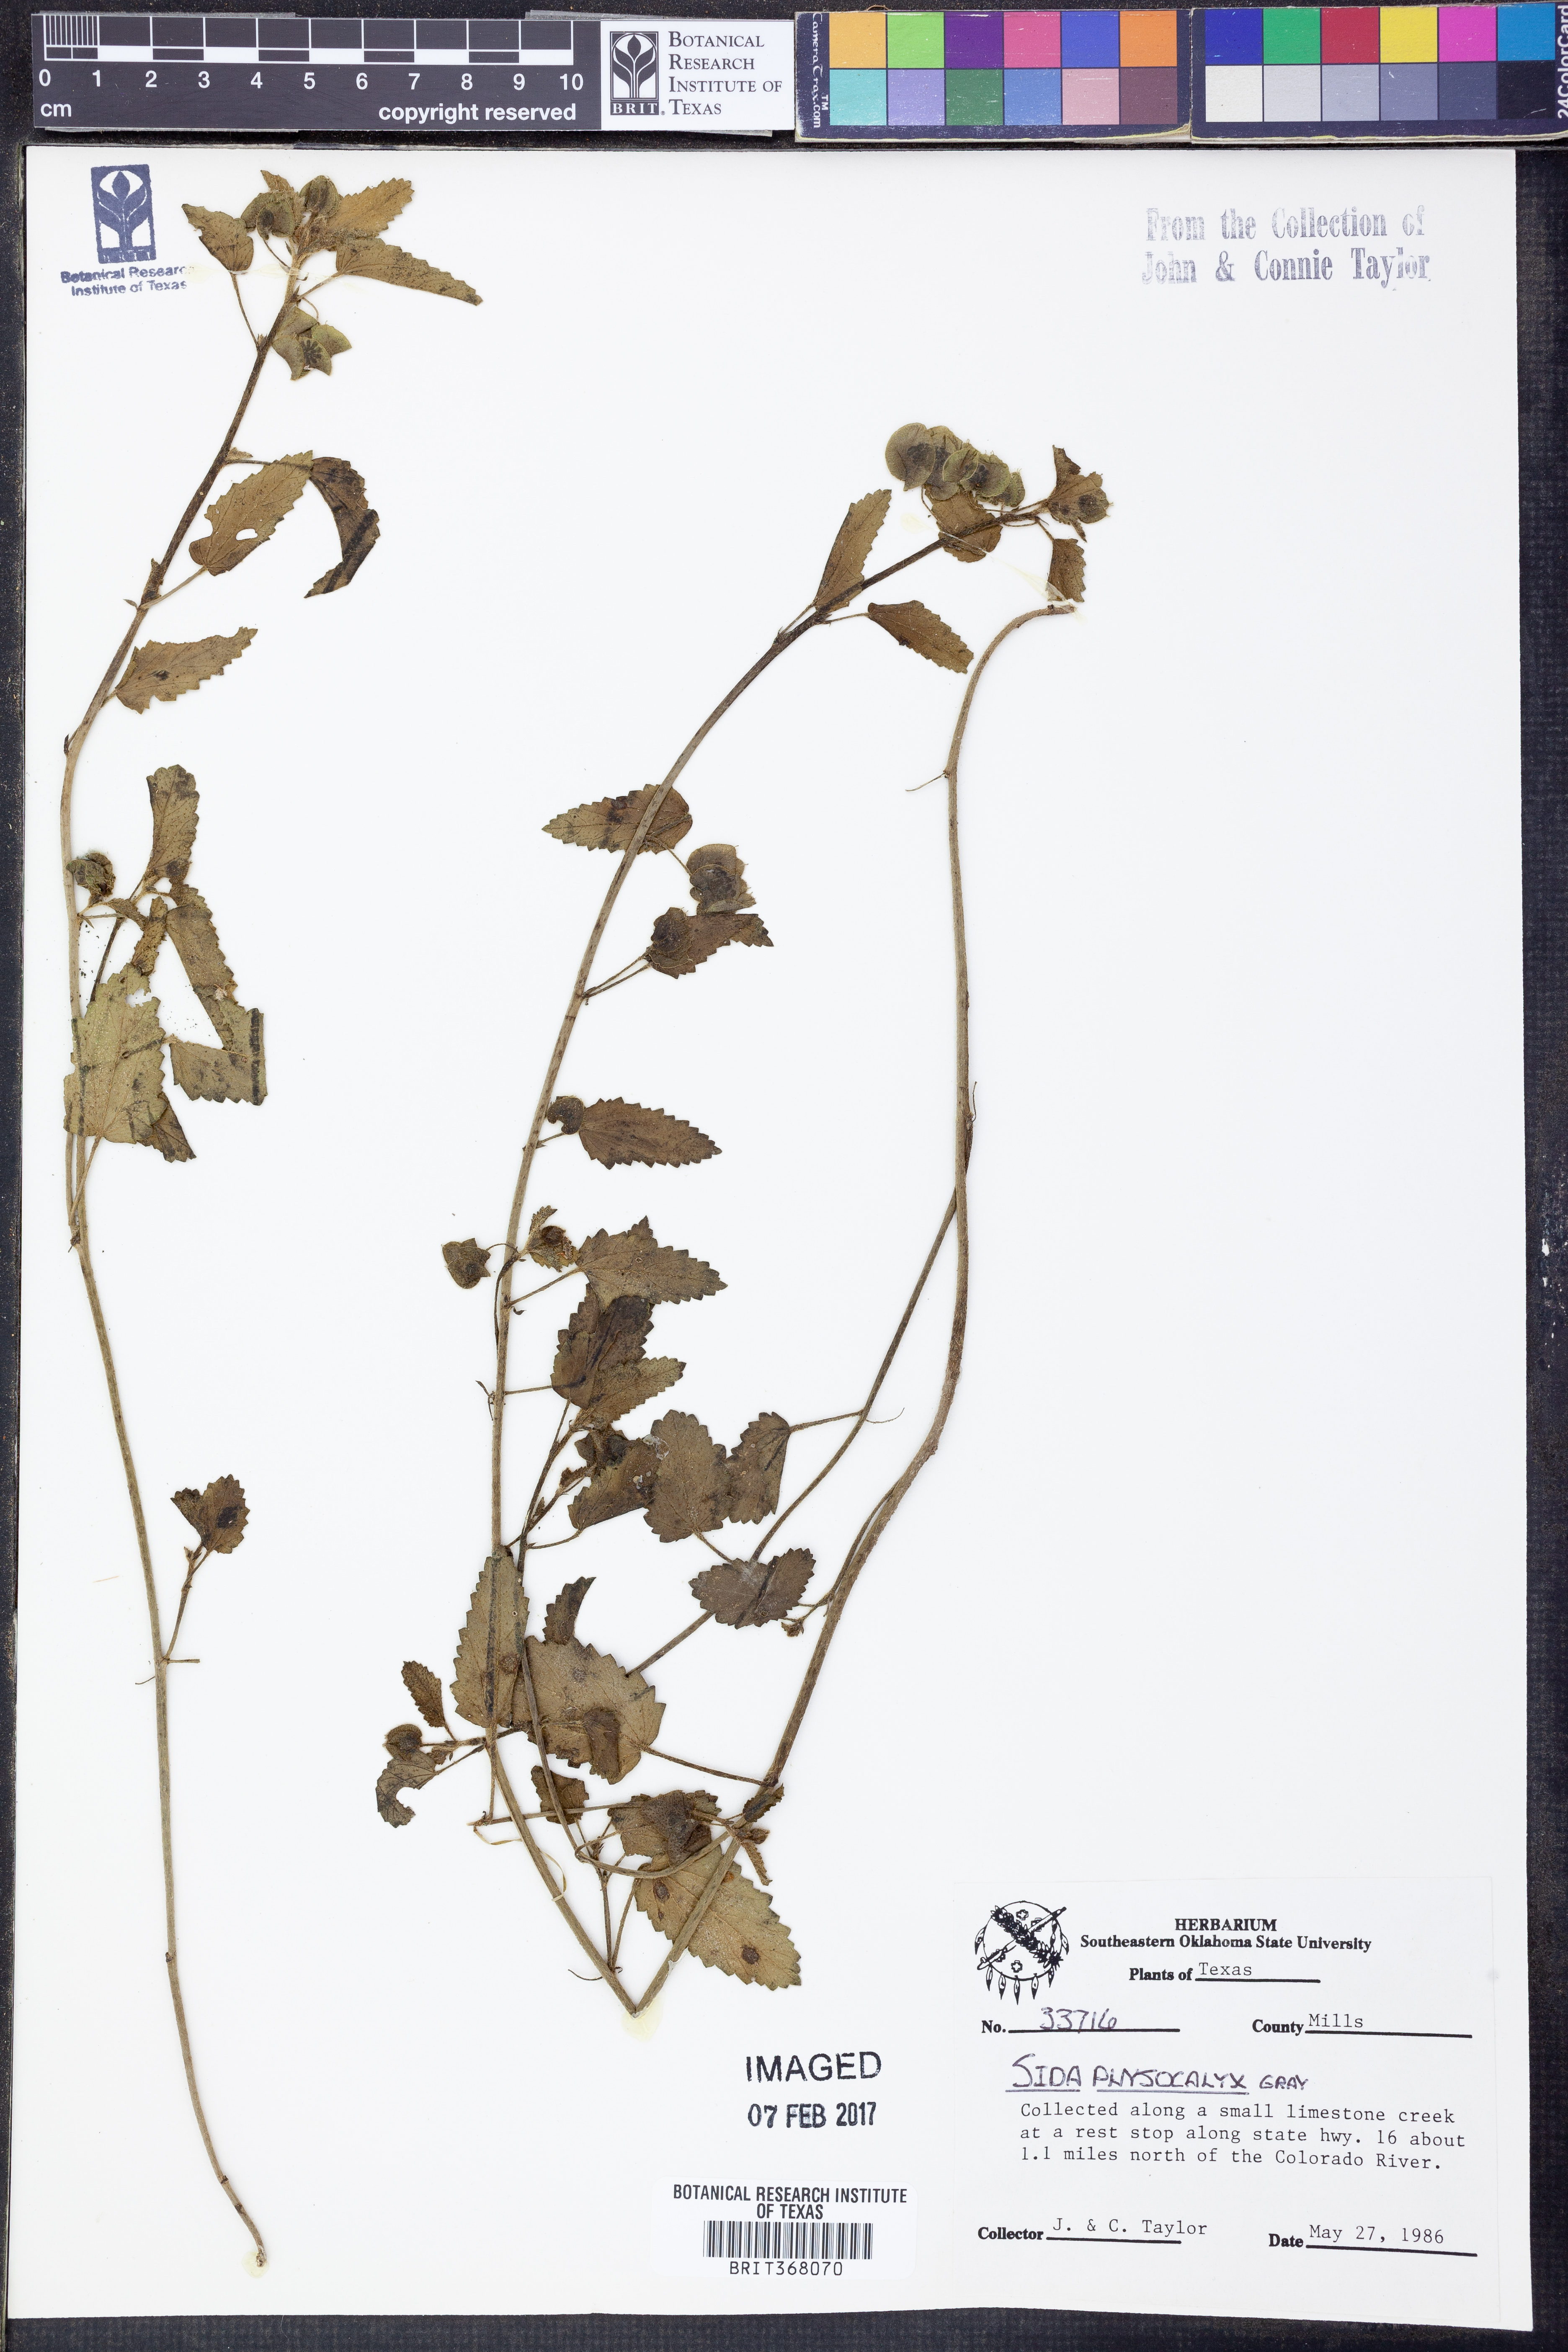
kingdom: Plantae
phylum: Tracheophyta
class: Magnoliopsida
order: Malvales
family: Malvaceae
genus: Rhynchosida
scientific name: Rhynchosida physocalyx
